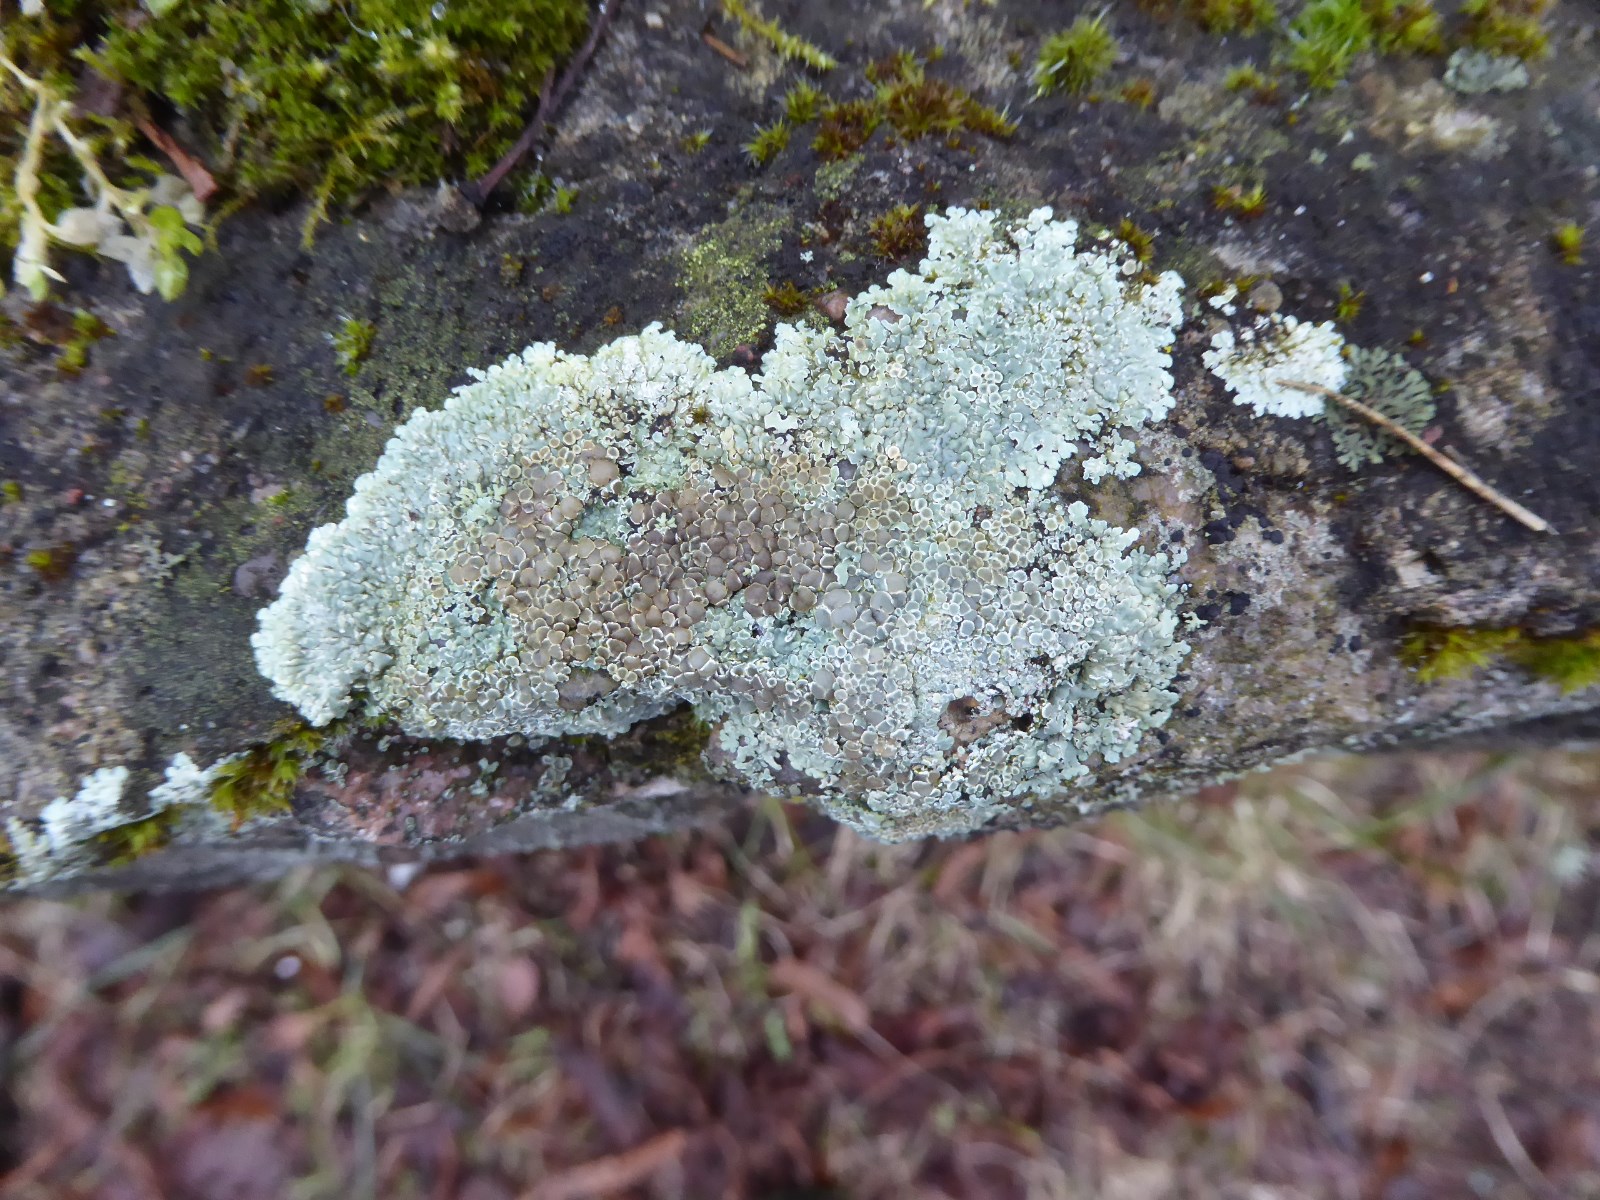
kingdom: Fungi
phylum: Ascomycota
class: Lecanoromycetes
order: Lecanorales
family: Lecanoraceae
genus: Protoparmeliopsis
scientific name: Protoparmeliopsis muralis
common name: randfliget kantskivelav
